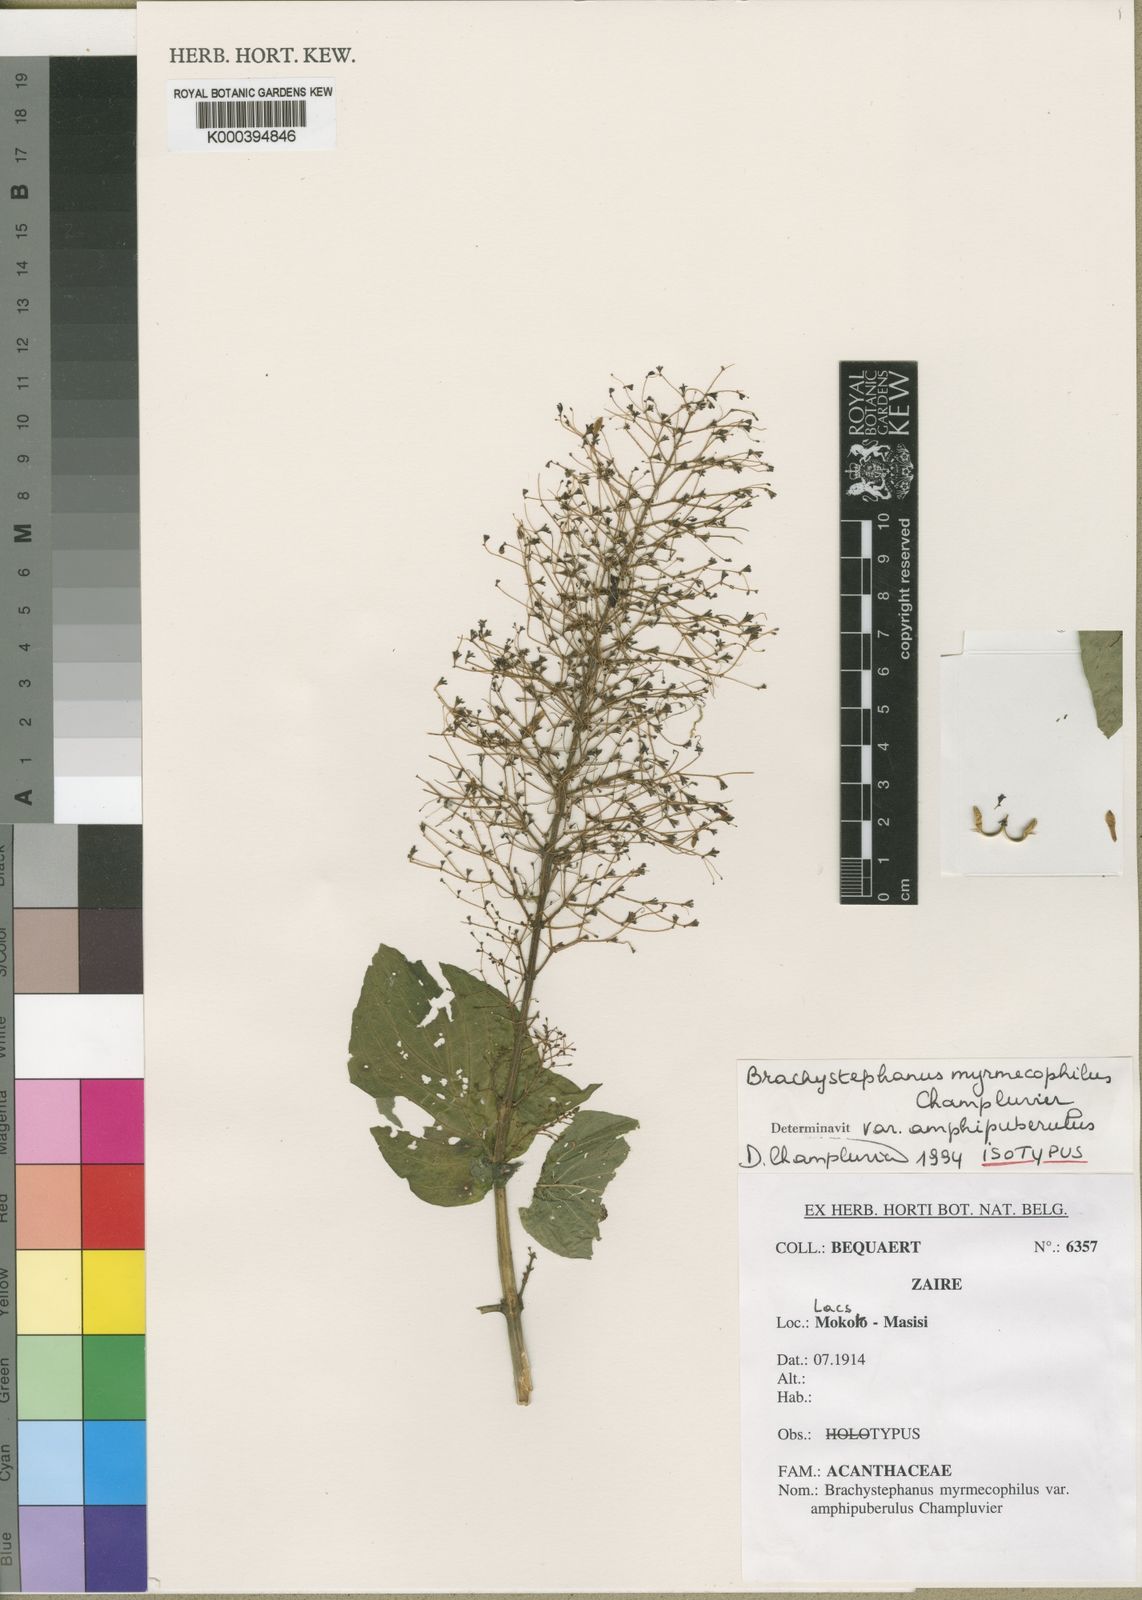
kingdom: Plantae
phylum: Tracheophyta
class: Magnoliopsida
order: Lamiales
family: Acanthaceae
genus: Brachystephanus
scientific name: Brachystephanus myrmecophilus
